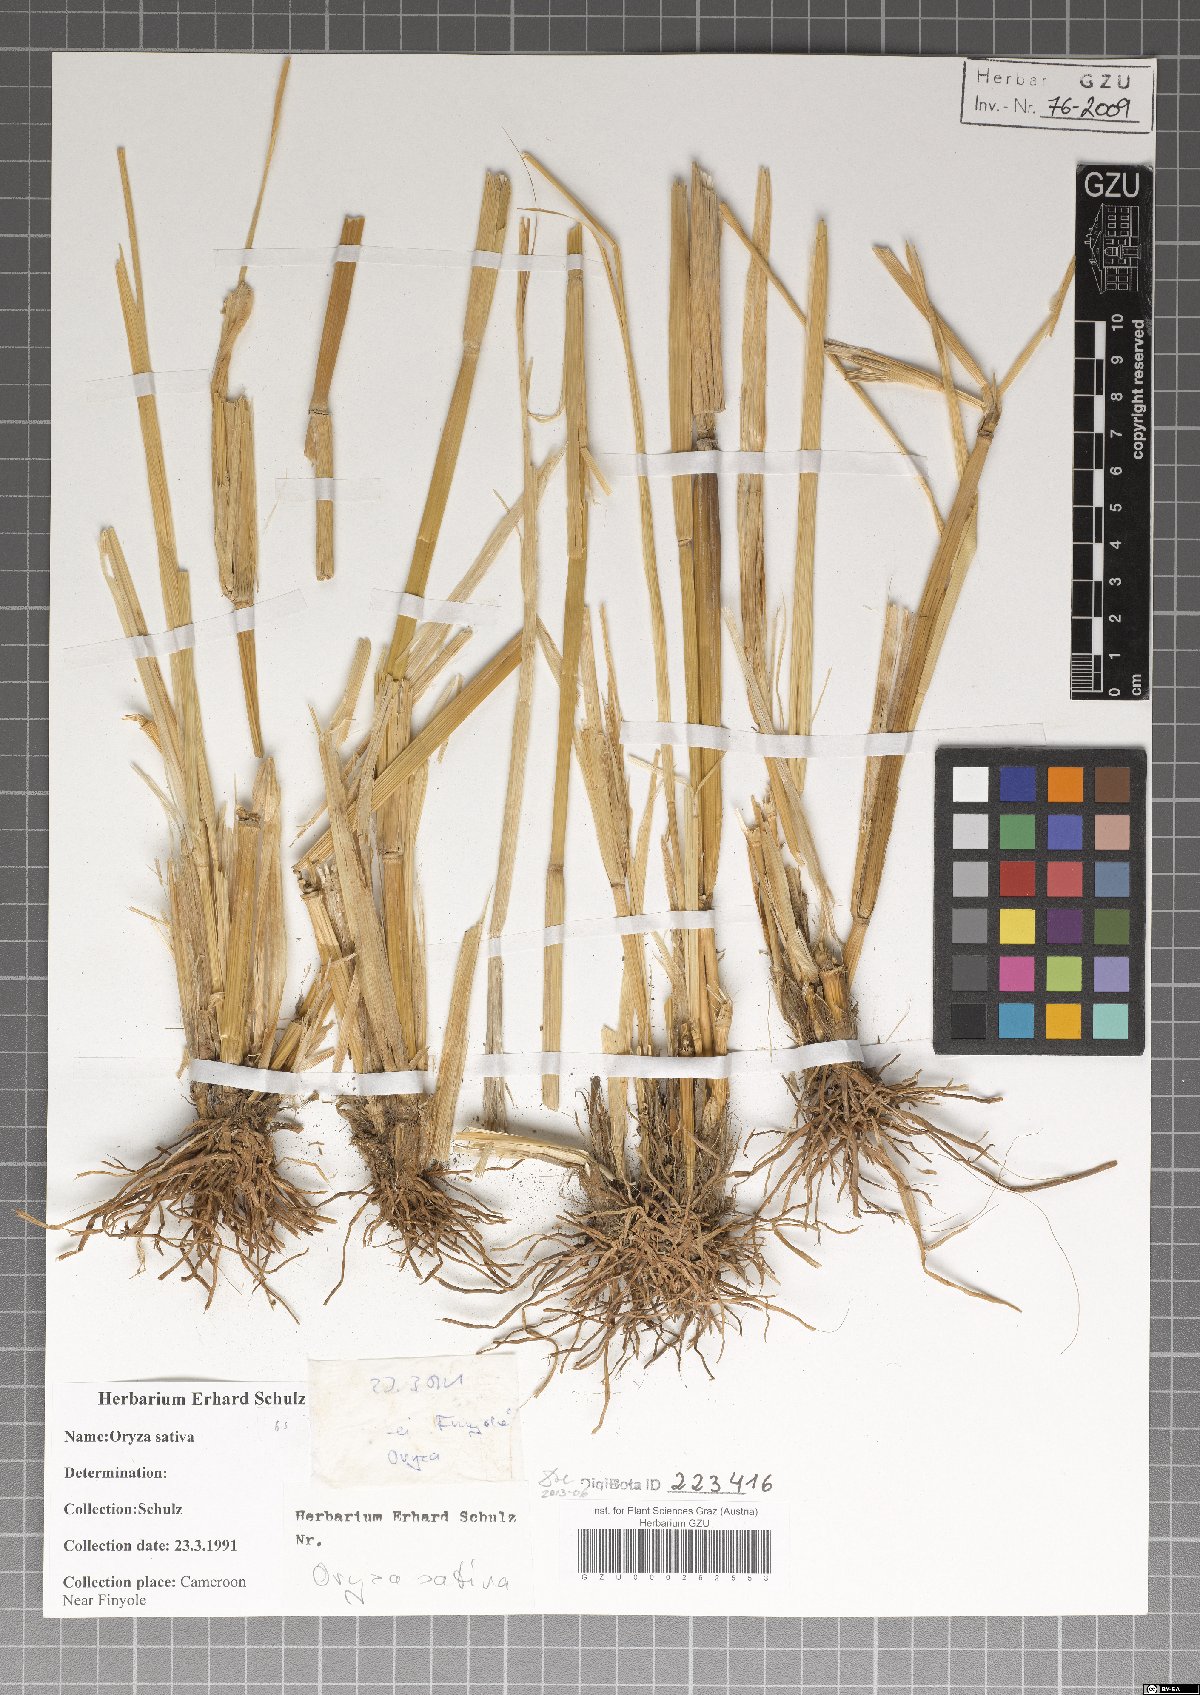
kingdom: Plantae
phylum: Tracheophyta
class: Liliopsida
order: Poales
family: Poaceae
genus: Oryza
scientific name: Oryza sativa
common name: Rice
